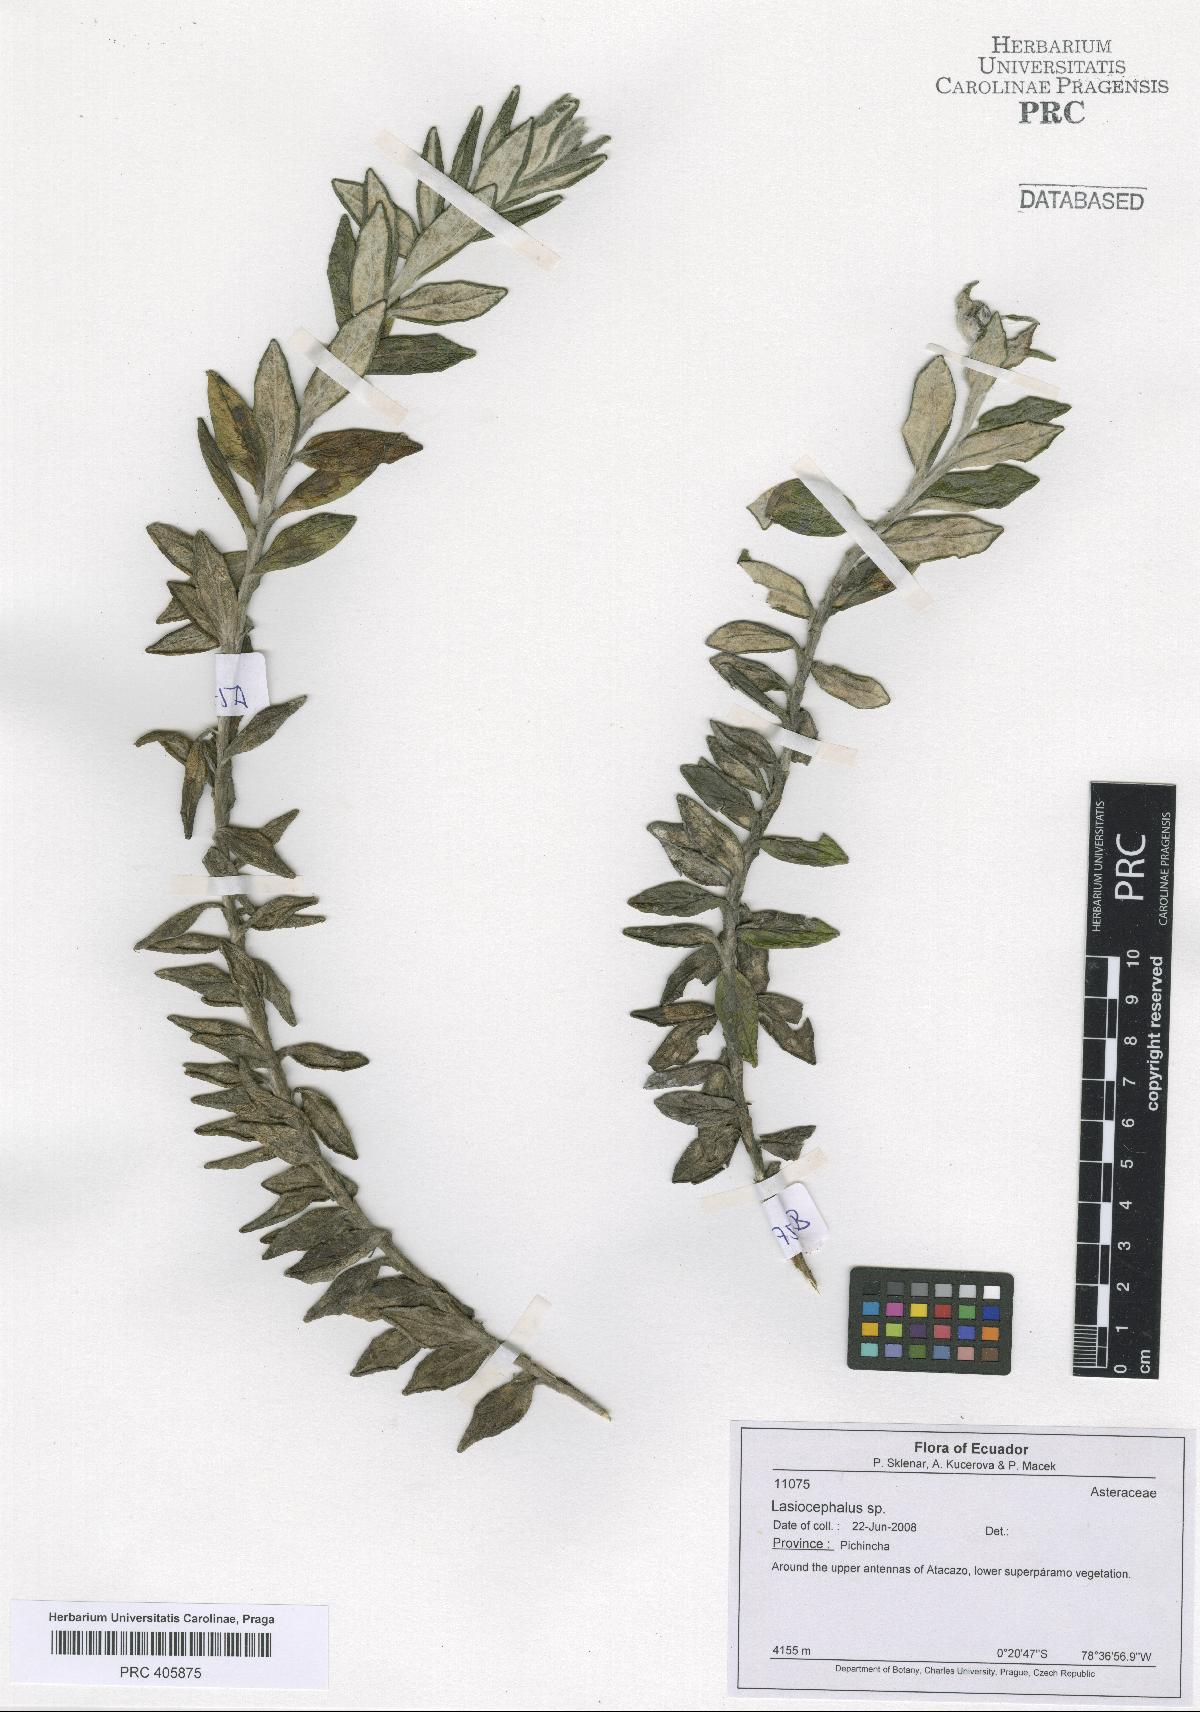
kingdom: Plantae
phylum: Tracheophyta
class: Magnoliopsida
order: Asterales
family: Asteraceae
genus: Lasiocephalus
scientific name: Lasiocephalus
